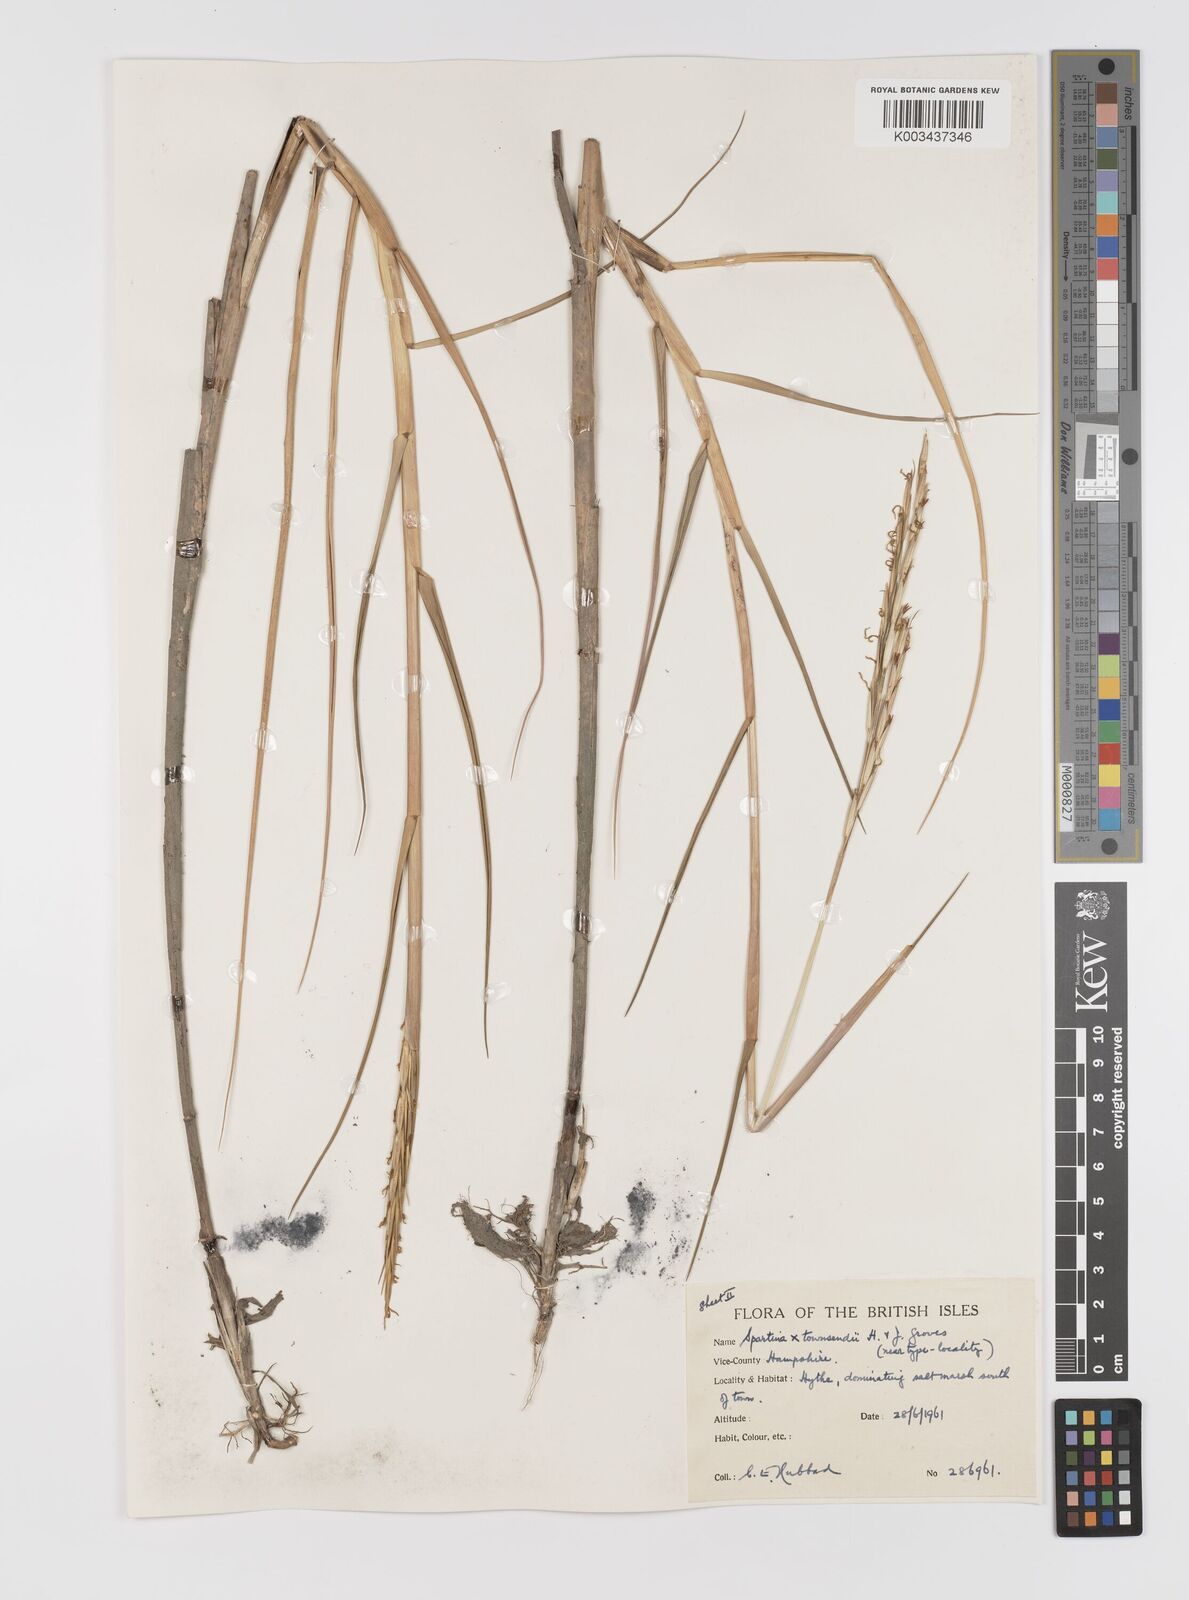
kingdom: Plantae
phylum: Tracheophyta
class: Liliopsida
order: Poales
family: Poaceae
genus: Sporobolus
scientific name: Sporobolus townsendii
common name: Townsend's cordgrass
